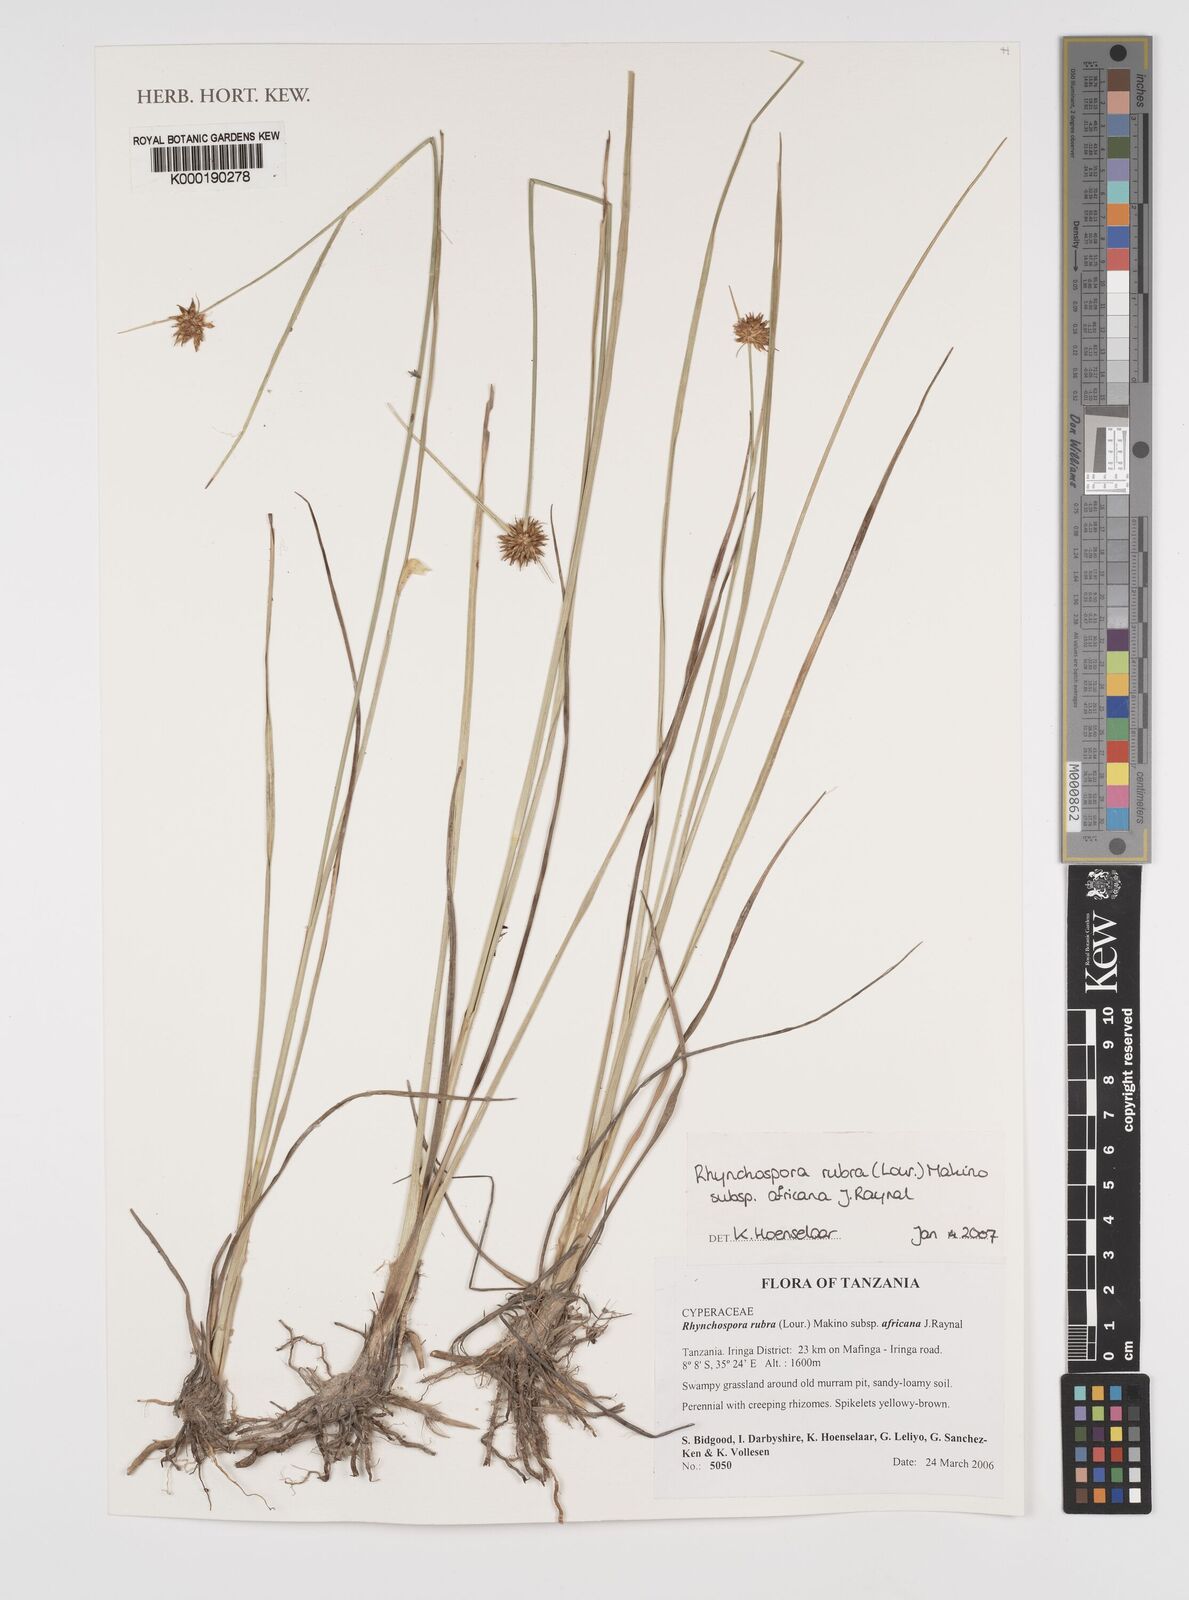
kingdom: Plantae
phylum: Tracheophyta
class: Liliopsida
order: Poales
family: Cyperaceae
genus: Rhynchospora
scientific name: Rhynchospora rubra
